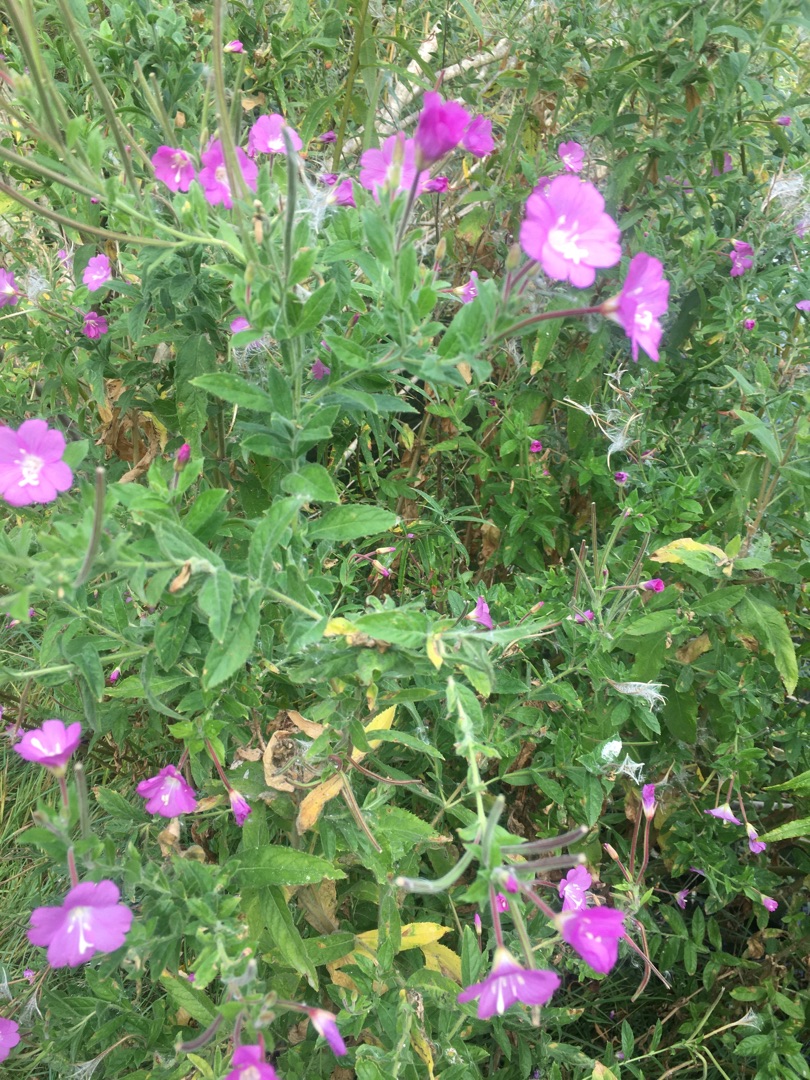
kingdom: Plantae
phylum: Tracheophyta
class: Magnoliopsida
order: Myrtales
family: Onagraceae
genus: Epilobium
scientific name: Epilobium hirsutum
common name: Lådden dueurt
